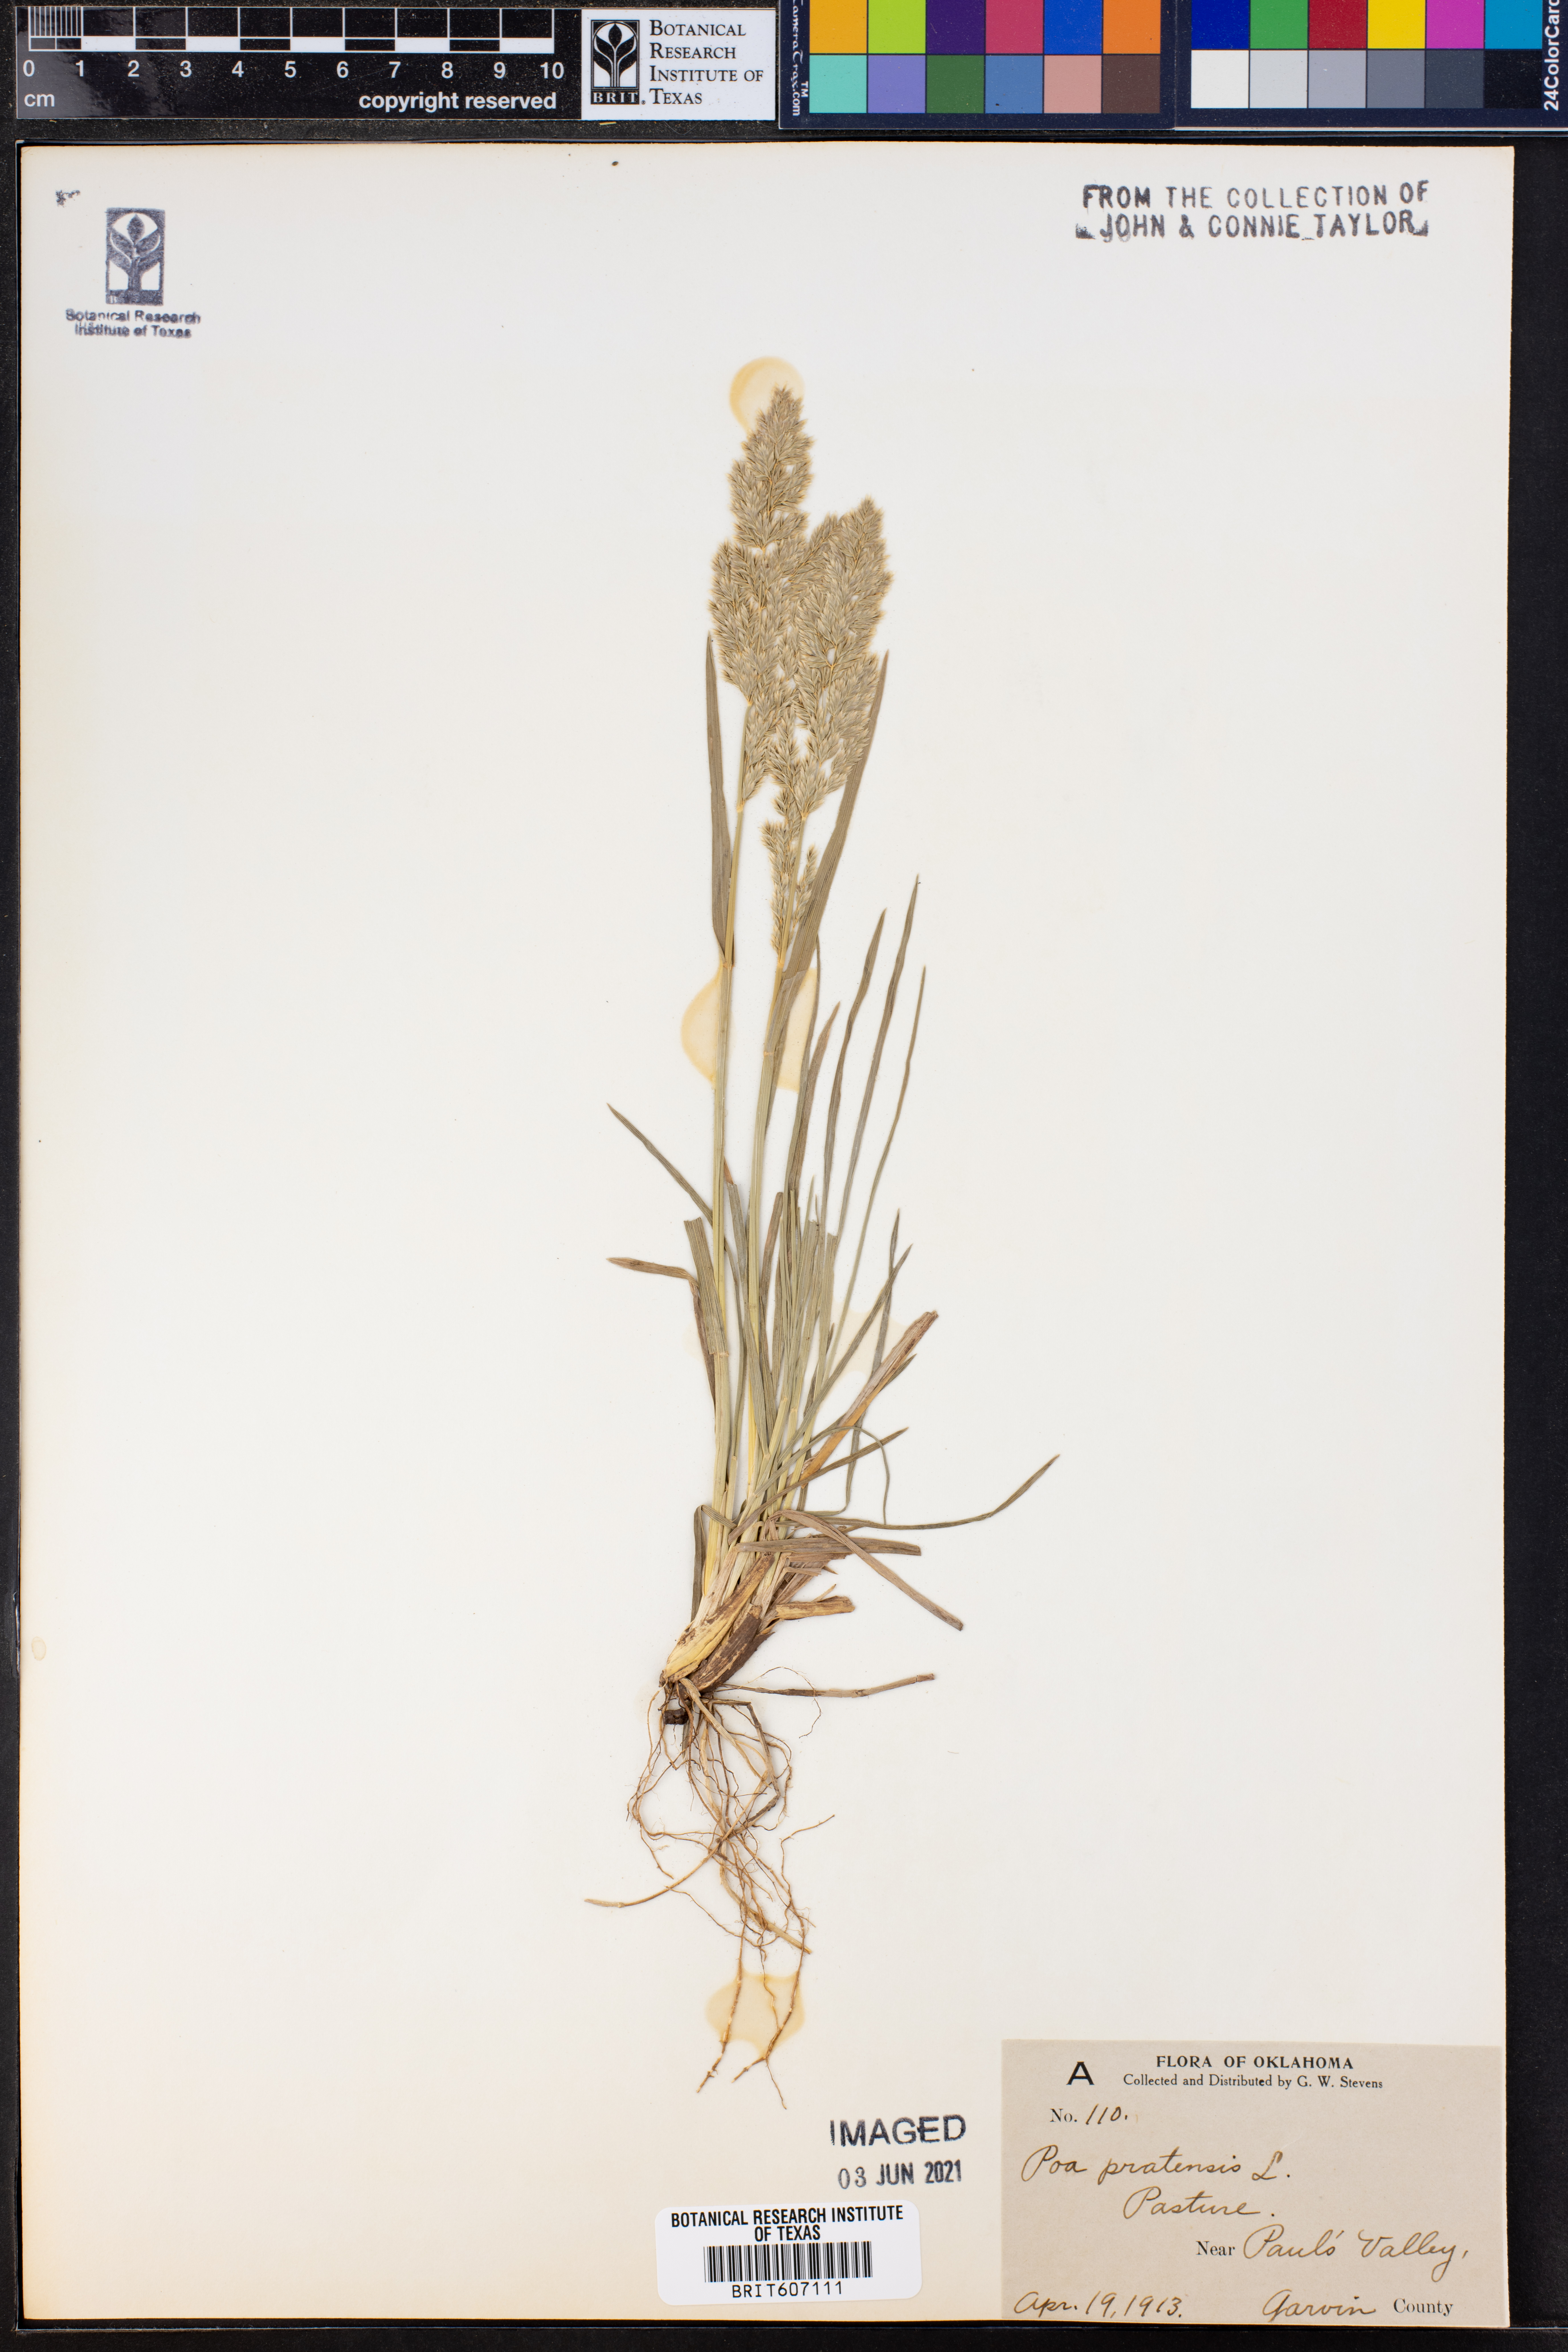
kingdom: Plantae
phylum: Tracheophyta
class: Liliopsida
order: Poales
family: Poaceae
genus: Poa
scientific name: Poa pratensis
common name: Kentucky bluegrass
